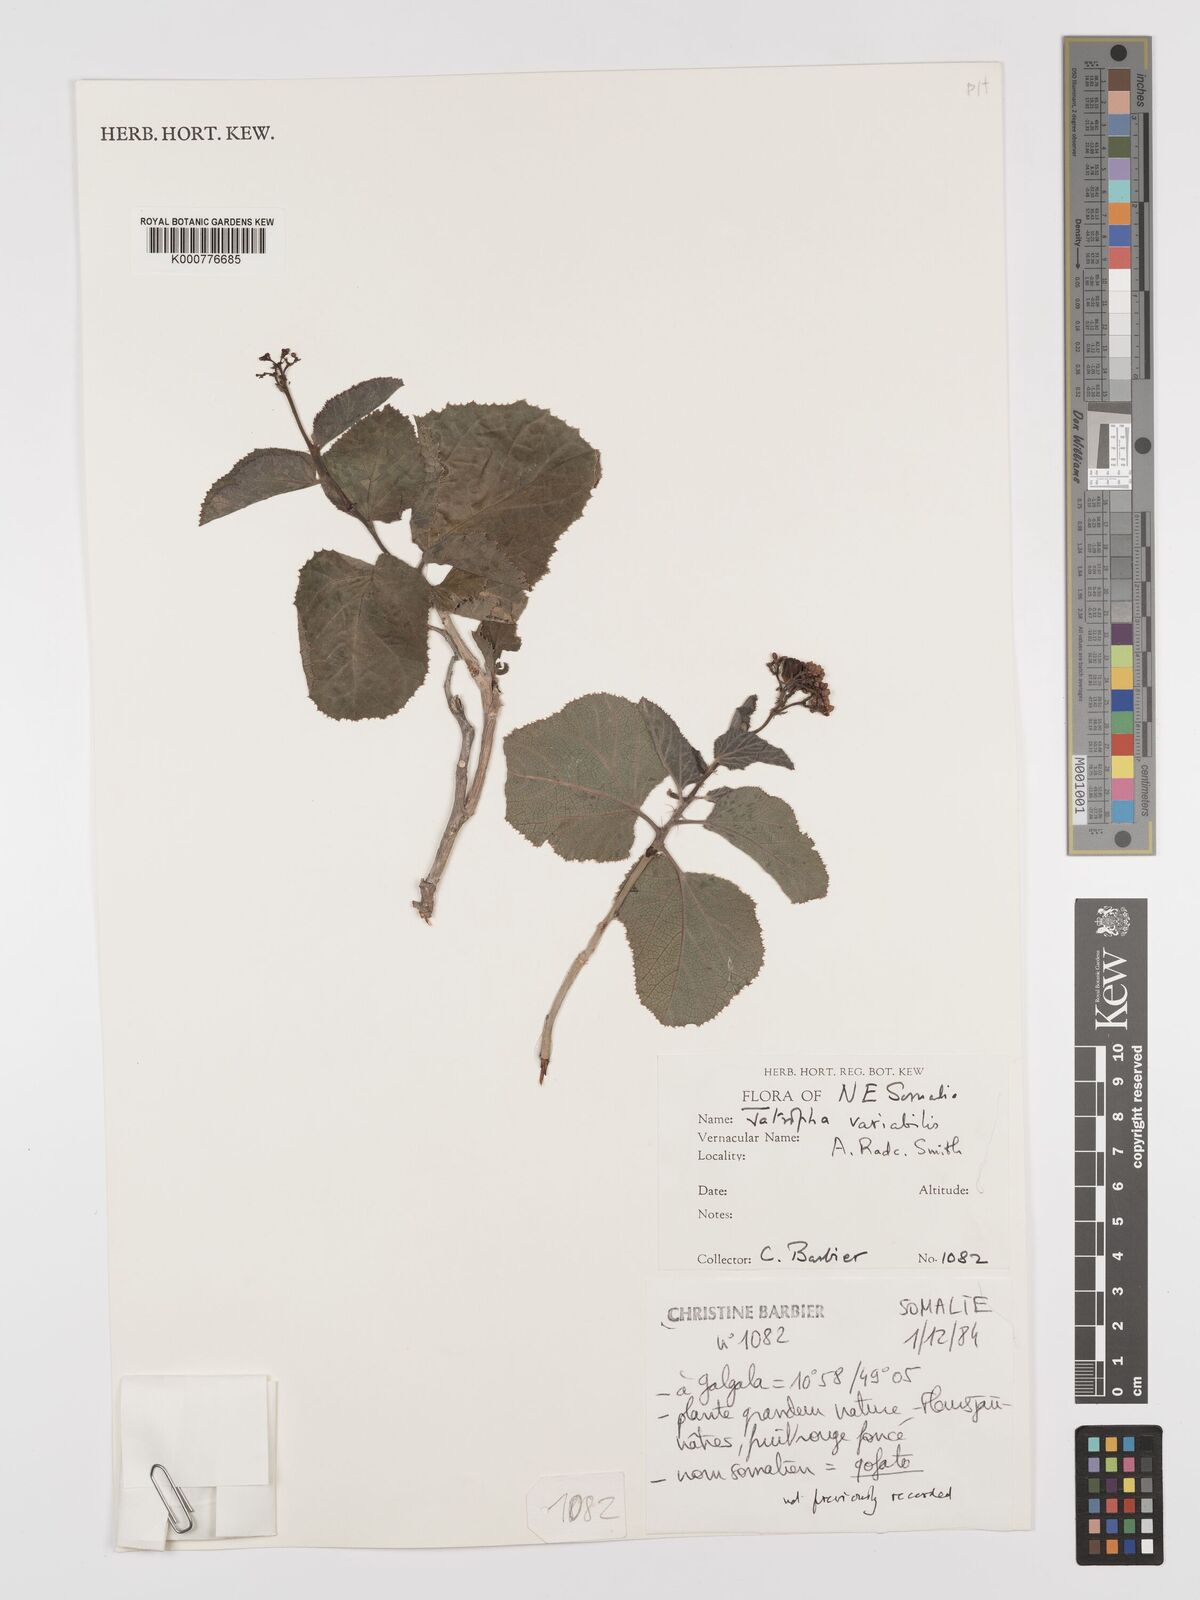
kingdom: Plantae
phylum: Tracheophyta
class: Magnoliopsida
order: Malpighiales
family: Euphorbiaceae
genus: Jatropha
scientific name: Jatropha variabilis
